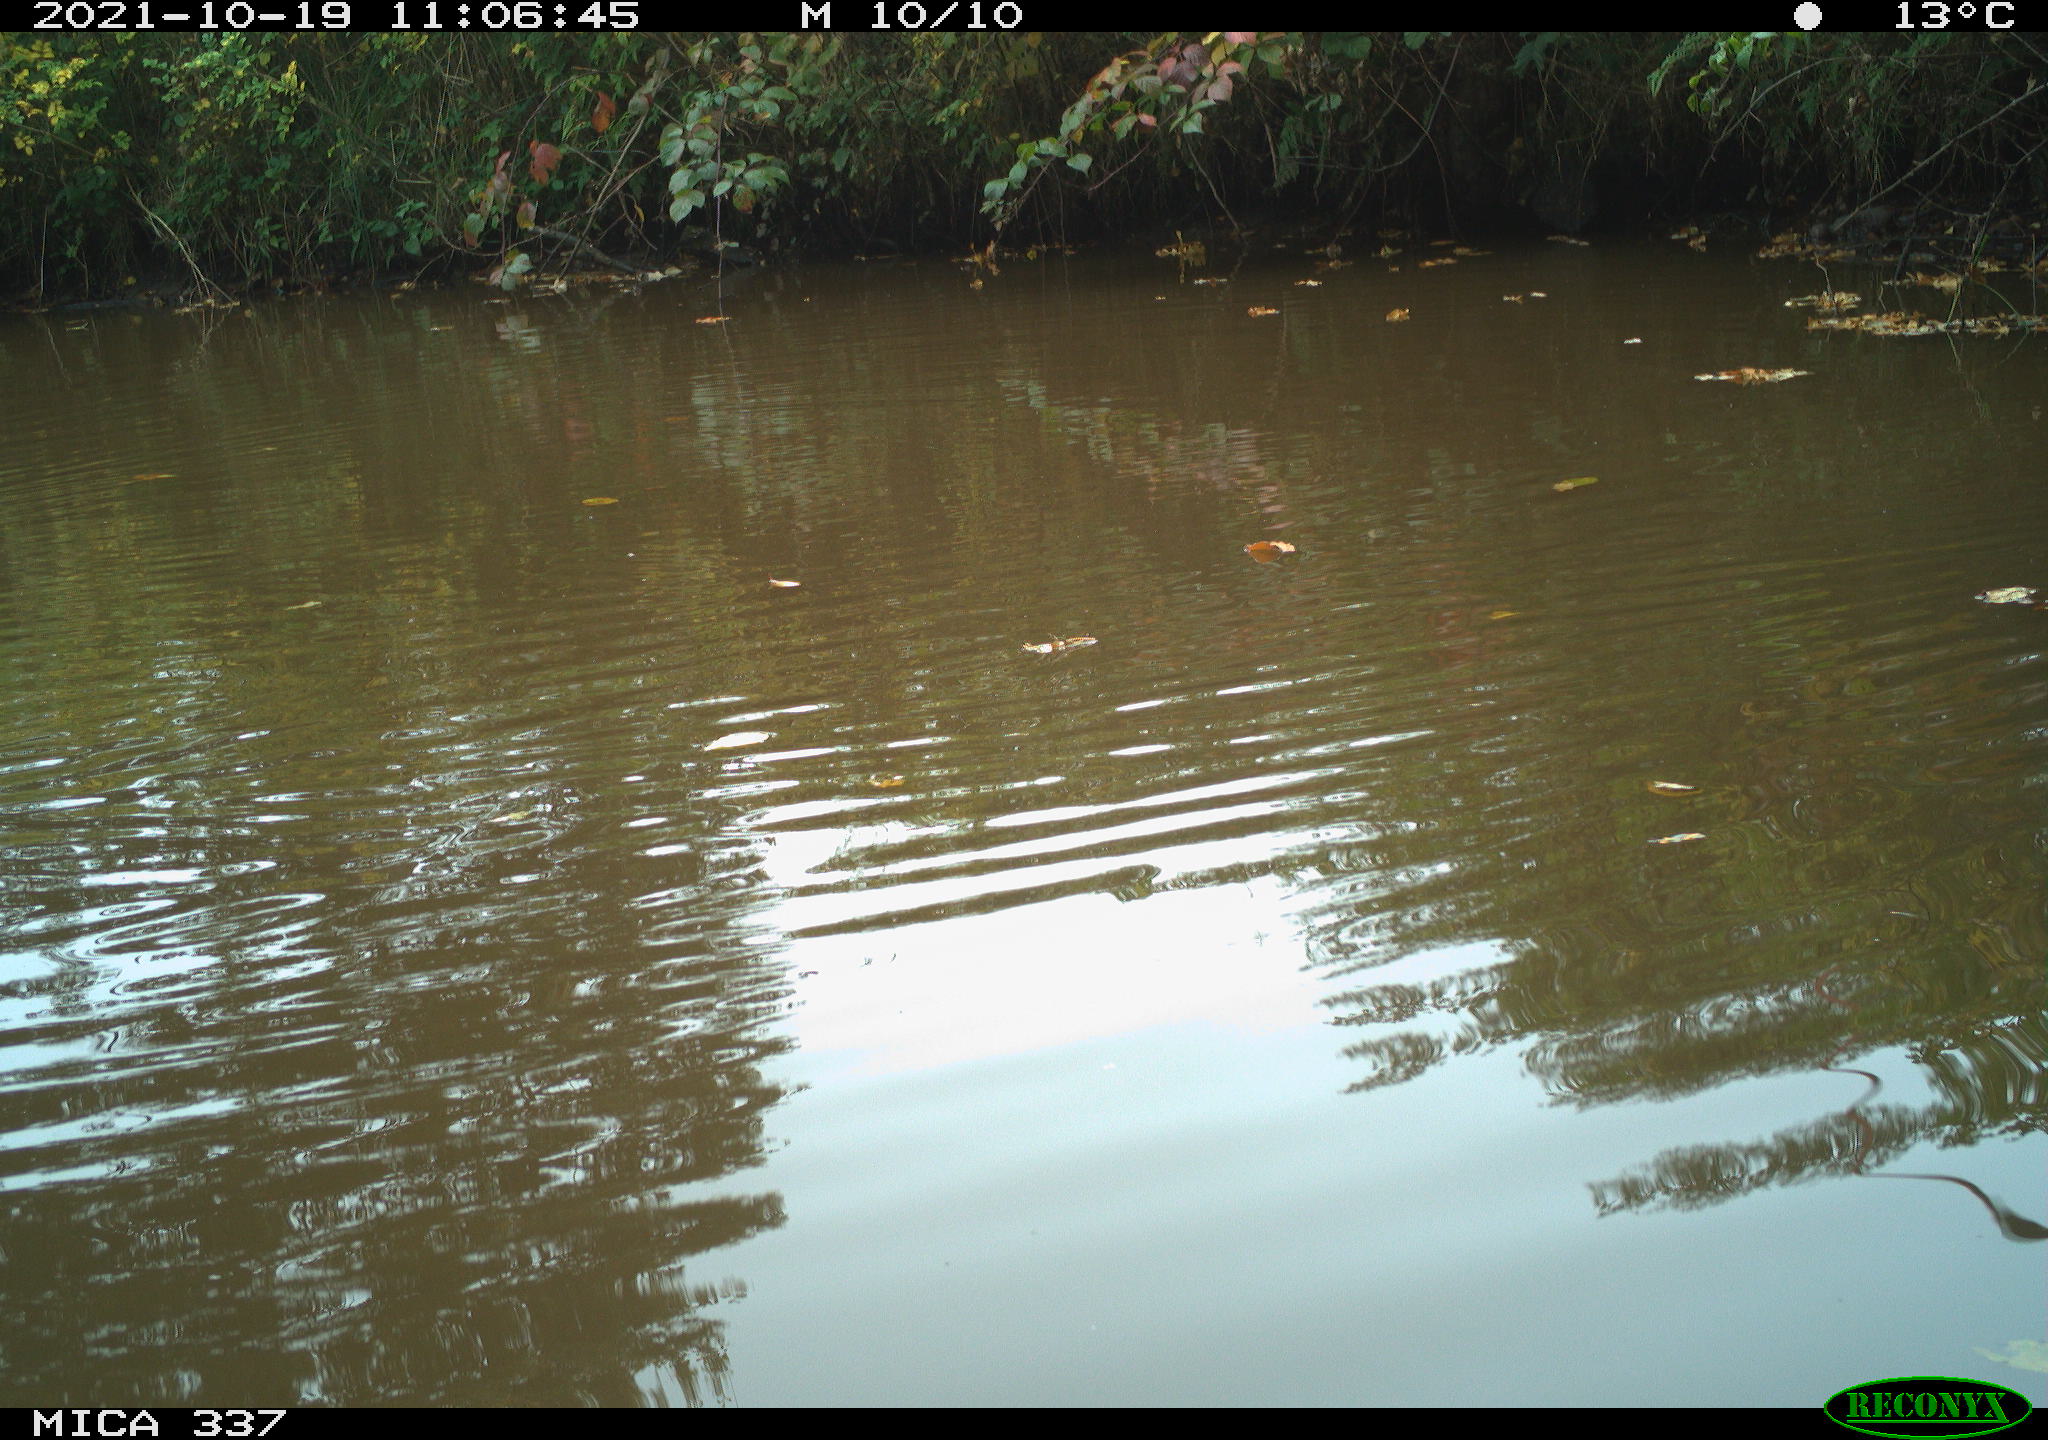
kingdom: Animalia
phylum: Chordata
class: Aves
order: Anseriformes
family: Anatidae
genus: Anas
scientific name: Anas platyrhynchos
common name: Mallard
